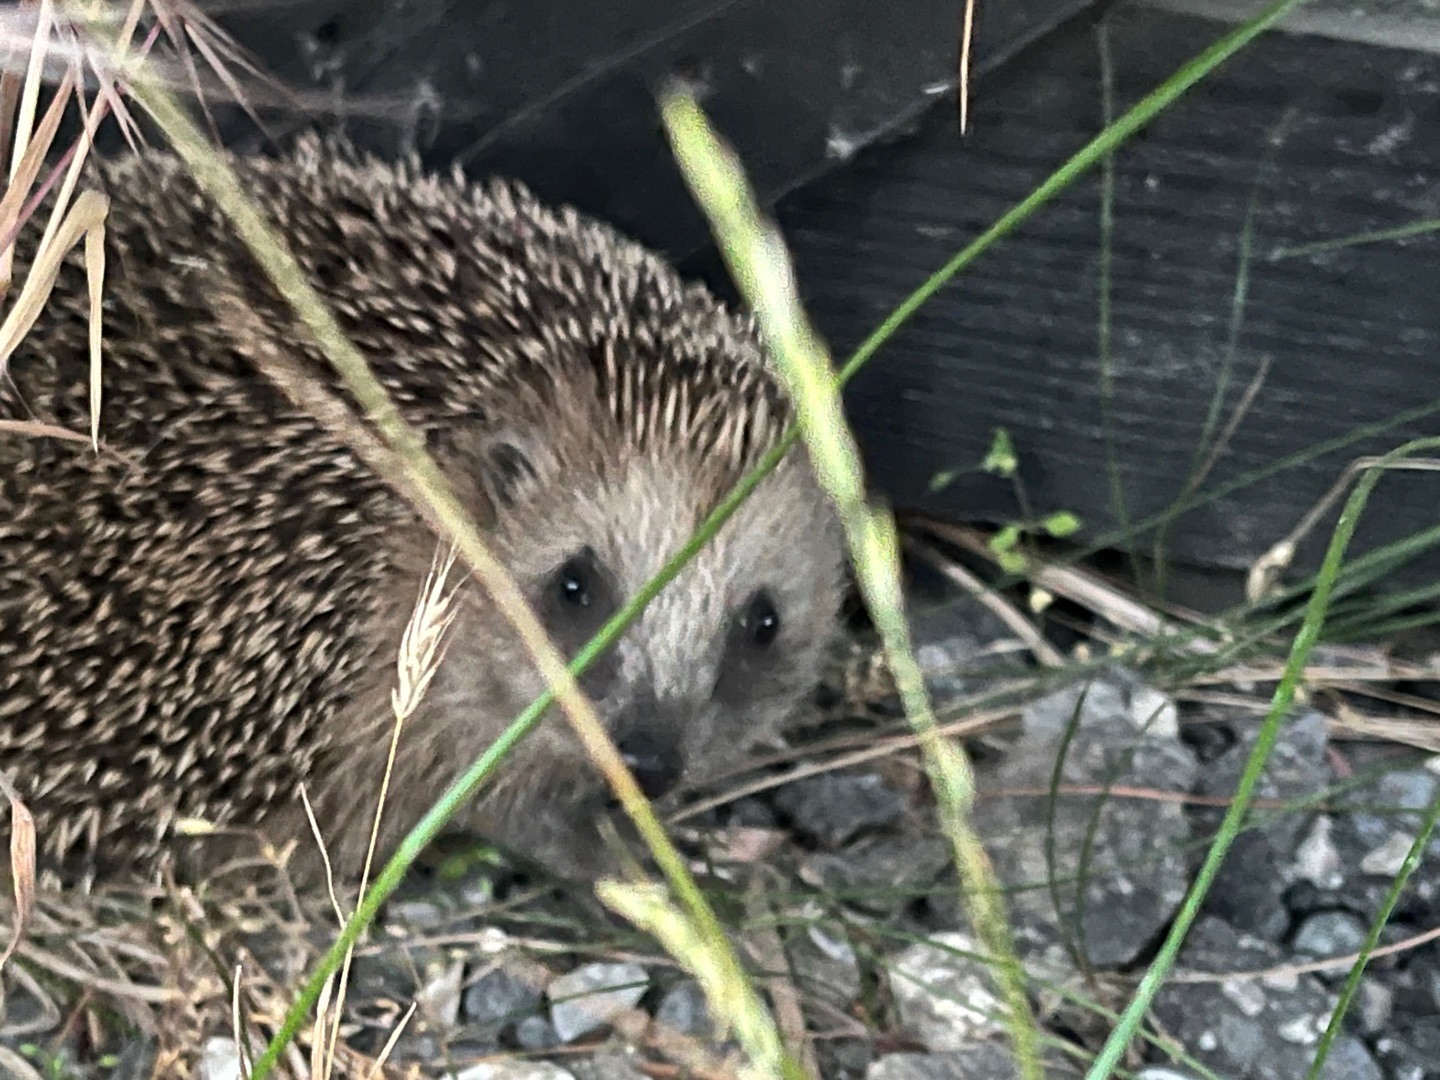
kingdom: Animalia
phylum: Chordata
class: Mammalia
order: Erinaceomorpha
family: Erinaceidae
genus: Erinaceus
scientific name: Erinaceus europaeus
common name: Pindsvin
